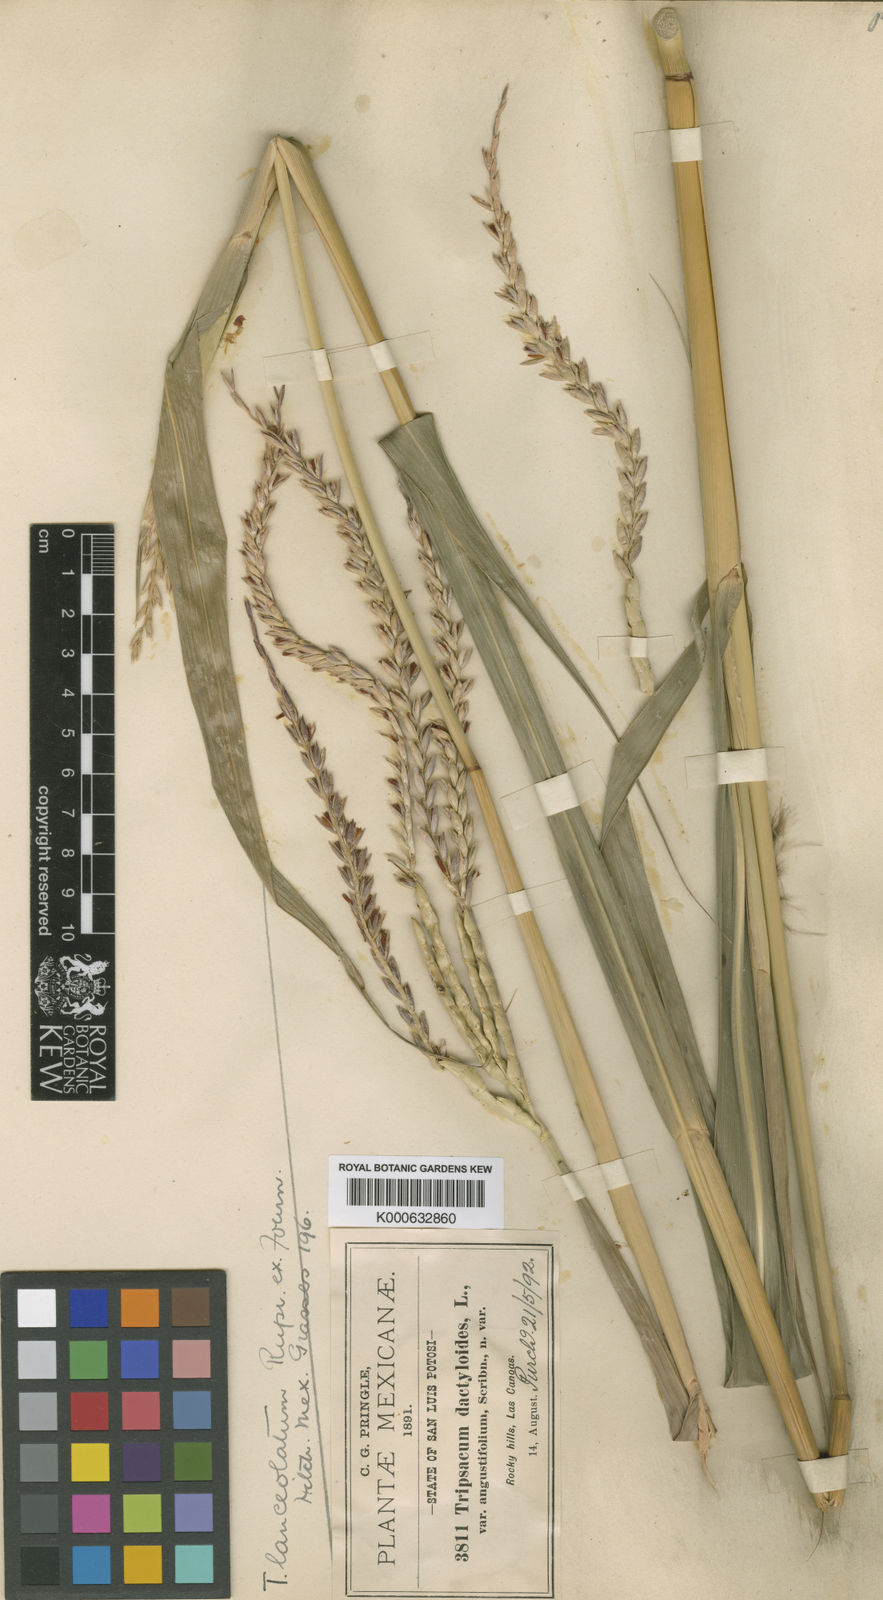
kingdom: Plantae
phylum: Tracheophyta
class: Liliopsida
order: Poales
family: Poaceae
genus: Tripsacum
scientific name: Tripsacum pilosum
